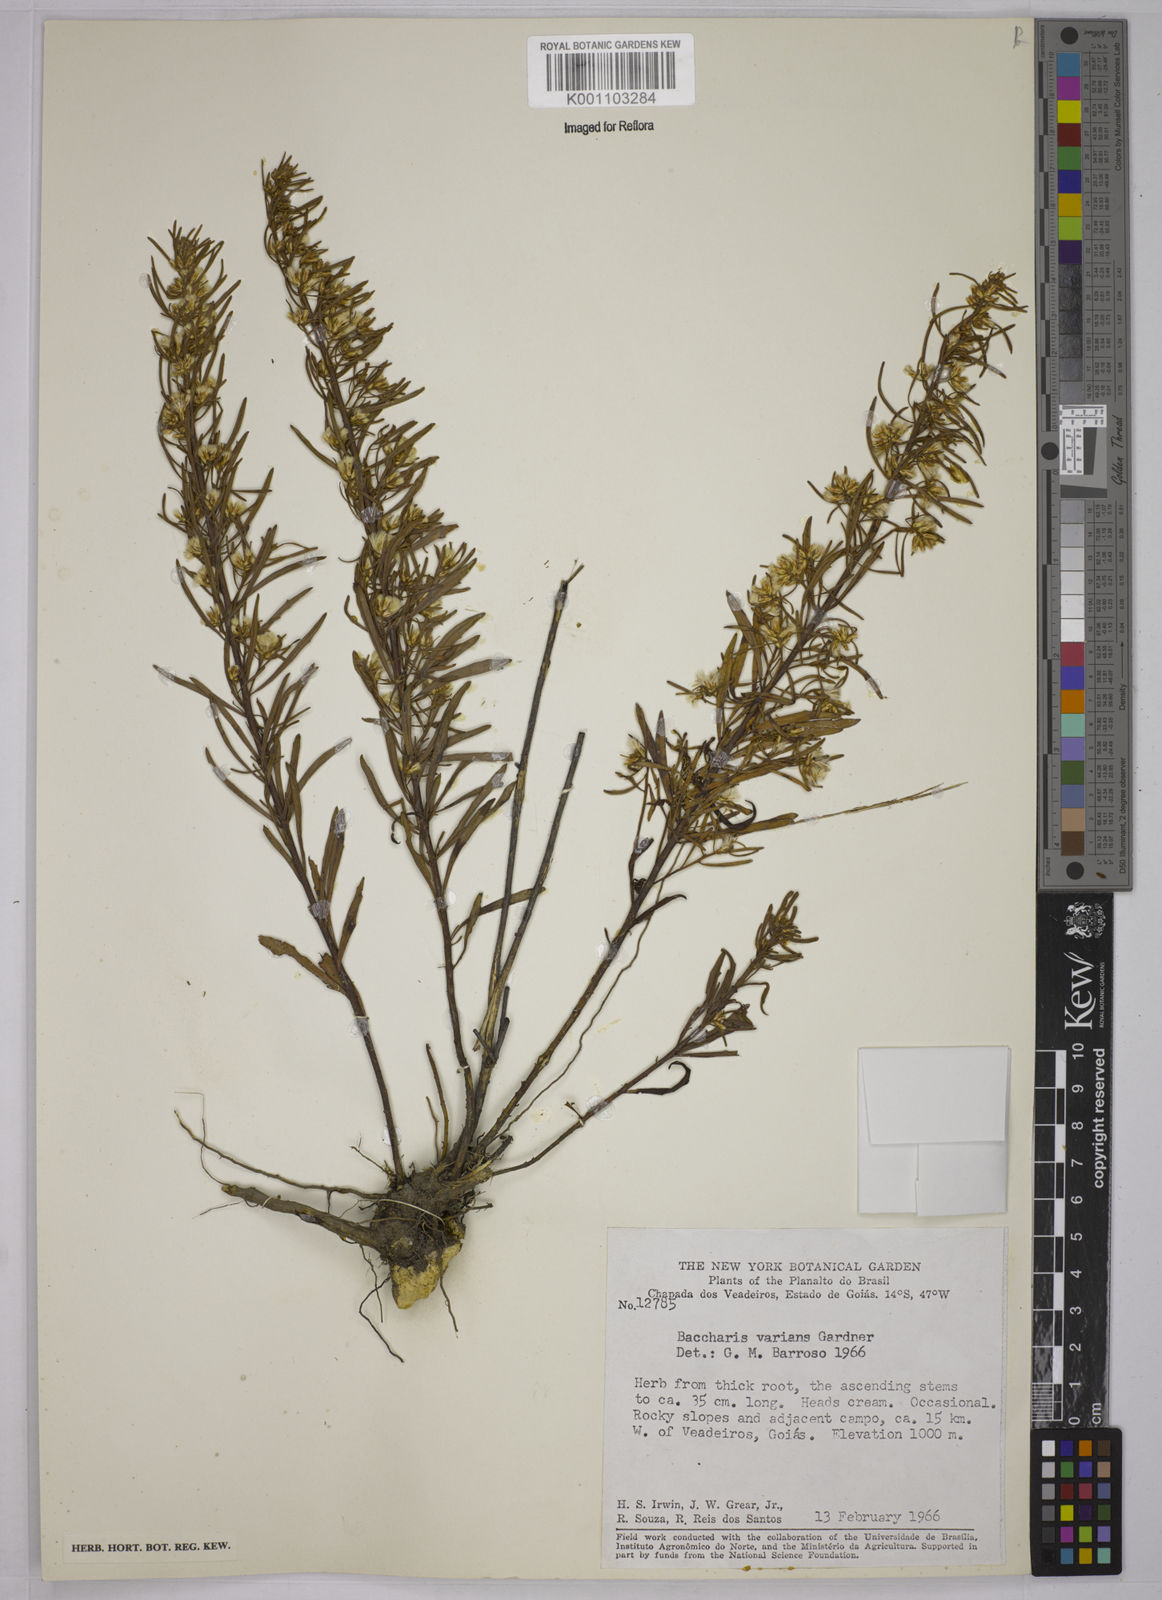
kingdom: Plantae
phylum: Tracheophyta
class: Magnoliopsida
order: Asterales
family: Asteraceae
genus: Baccharis
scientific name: Baccharis varians
